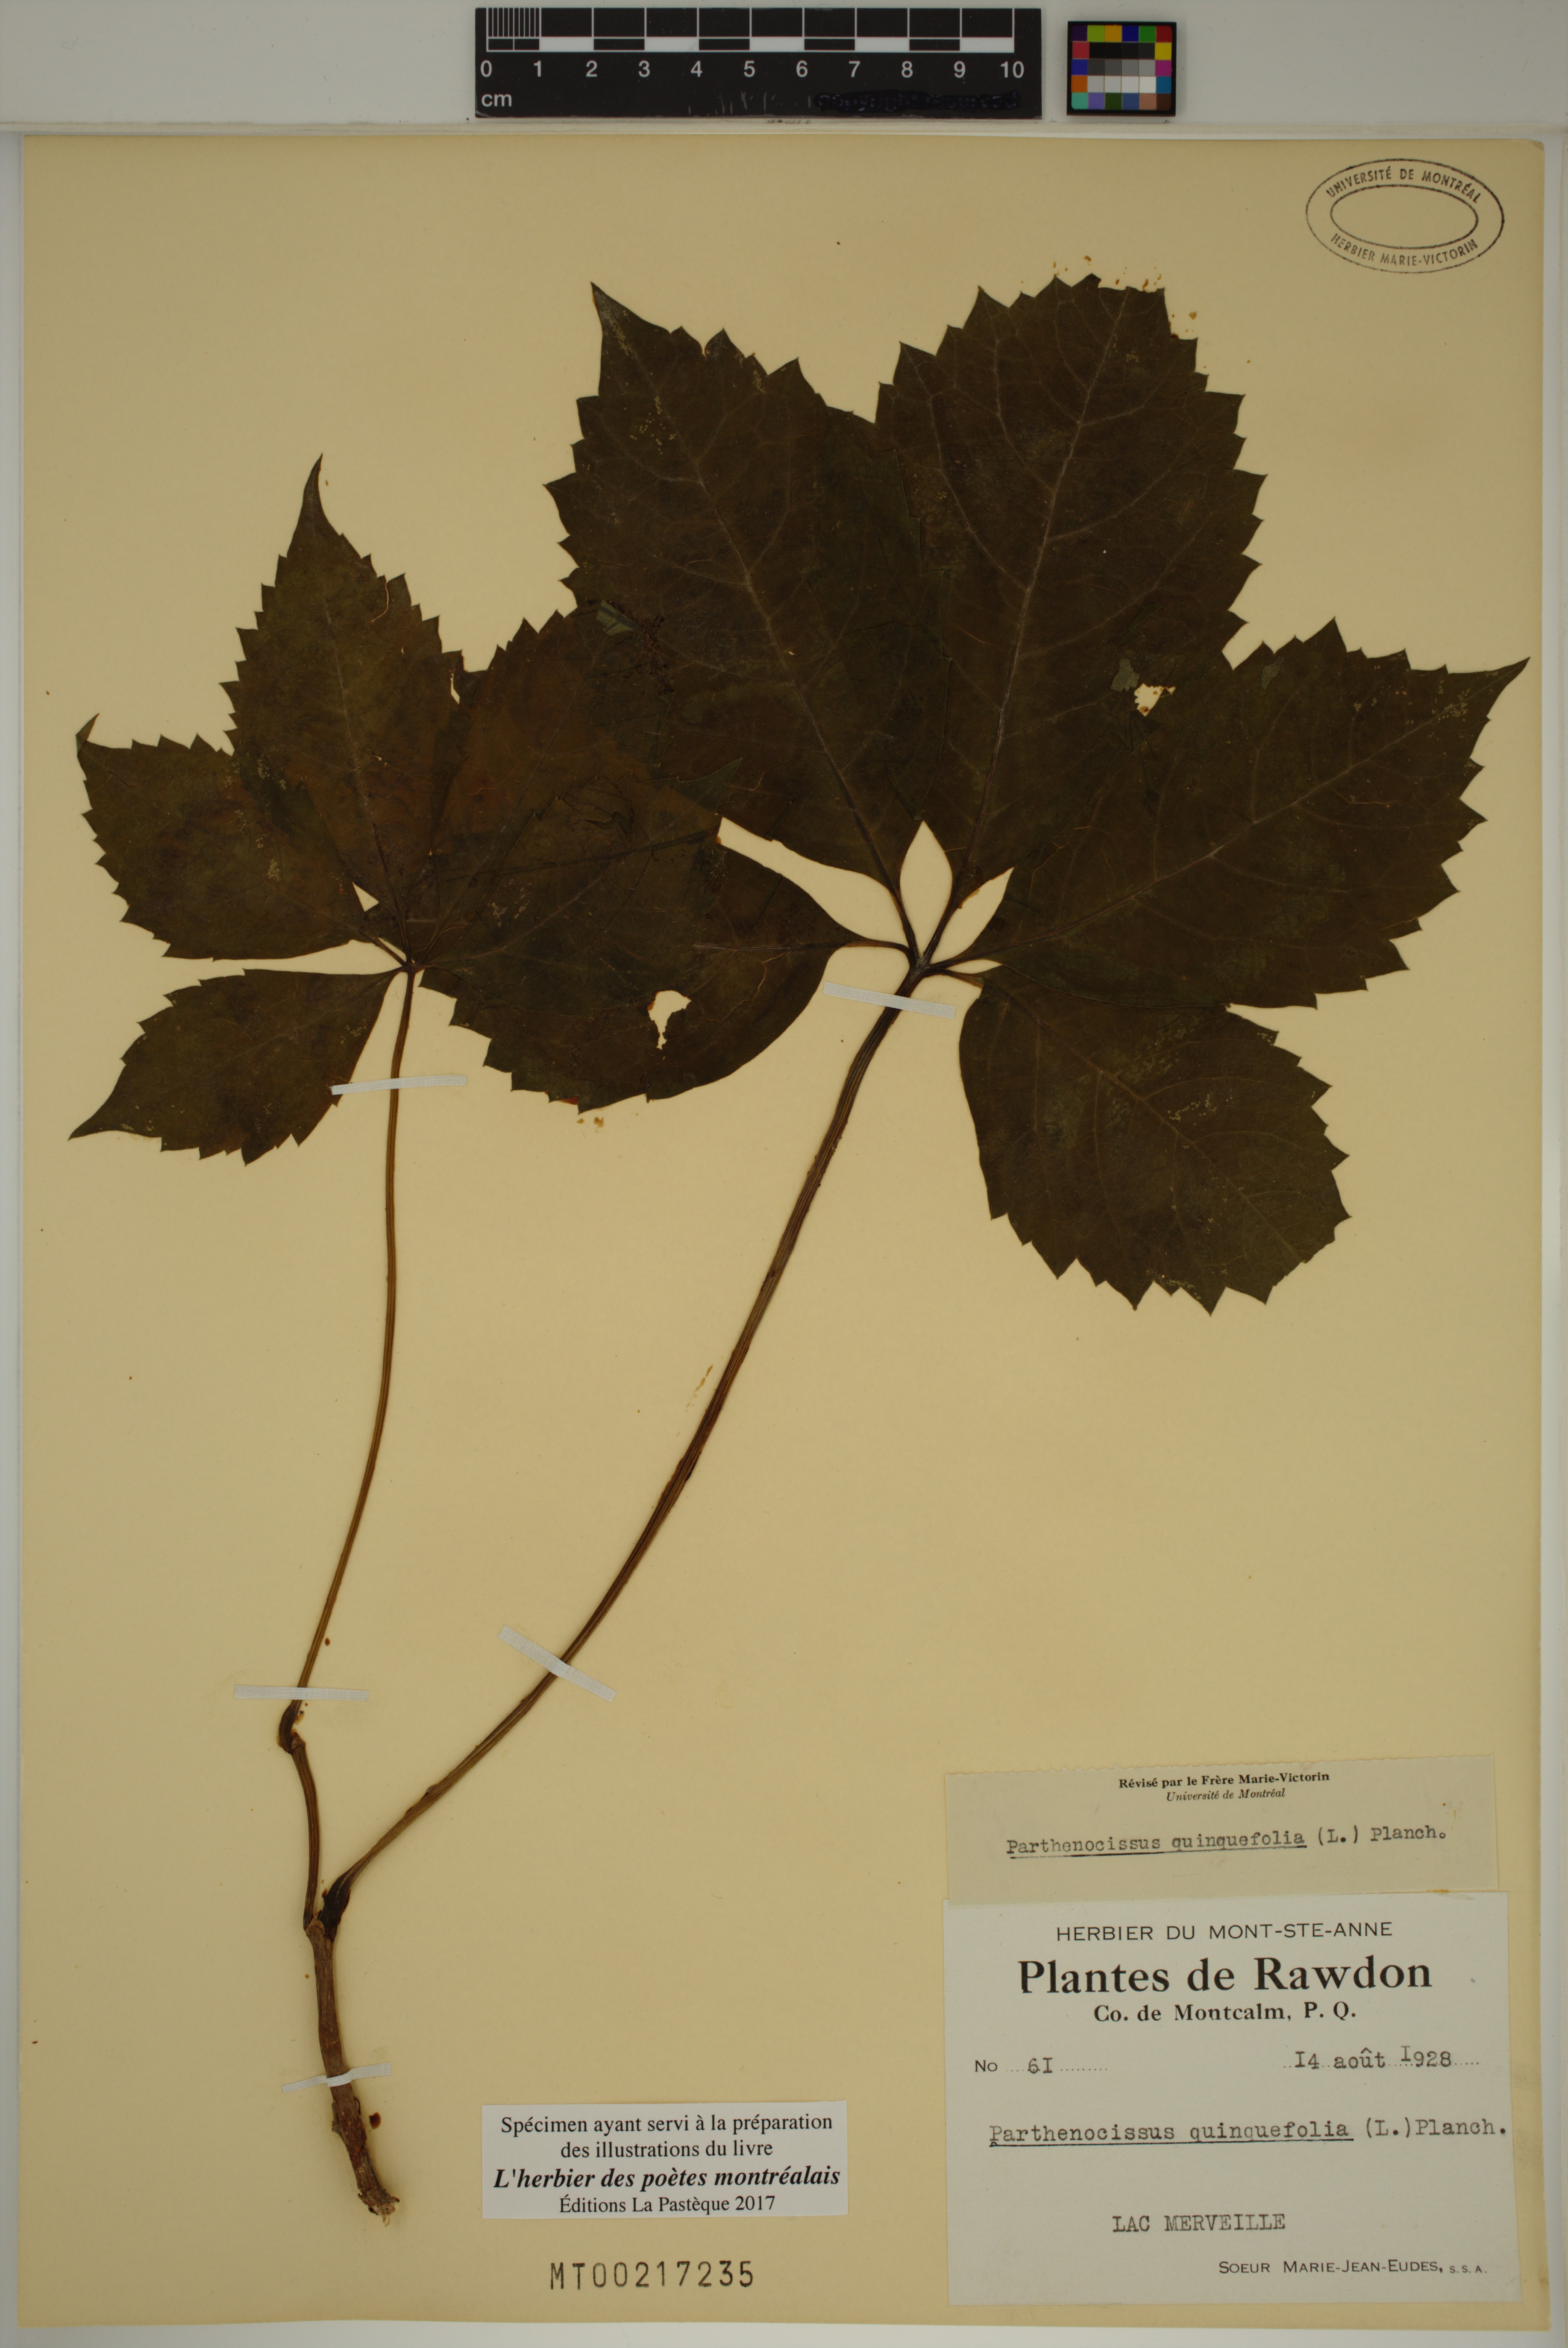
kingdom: Plantae
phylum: Tracheophyta
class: Magnoliopsida
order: Vitales
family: Vitaceae
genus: Parthenocissus
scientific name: Parthenocissus quinquefolia
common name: Virginia-creeper
